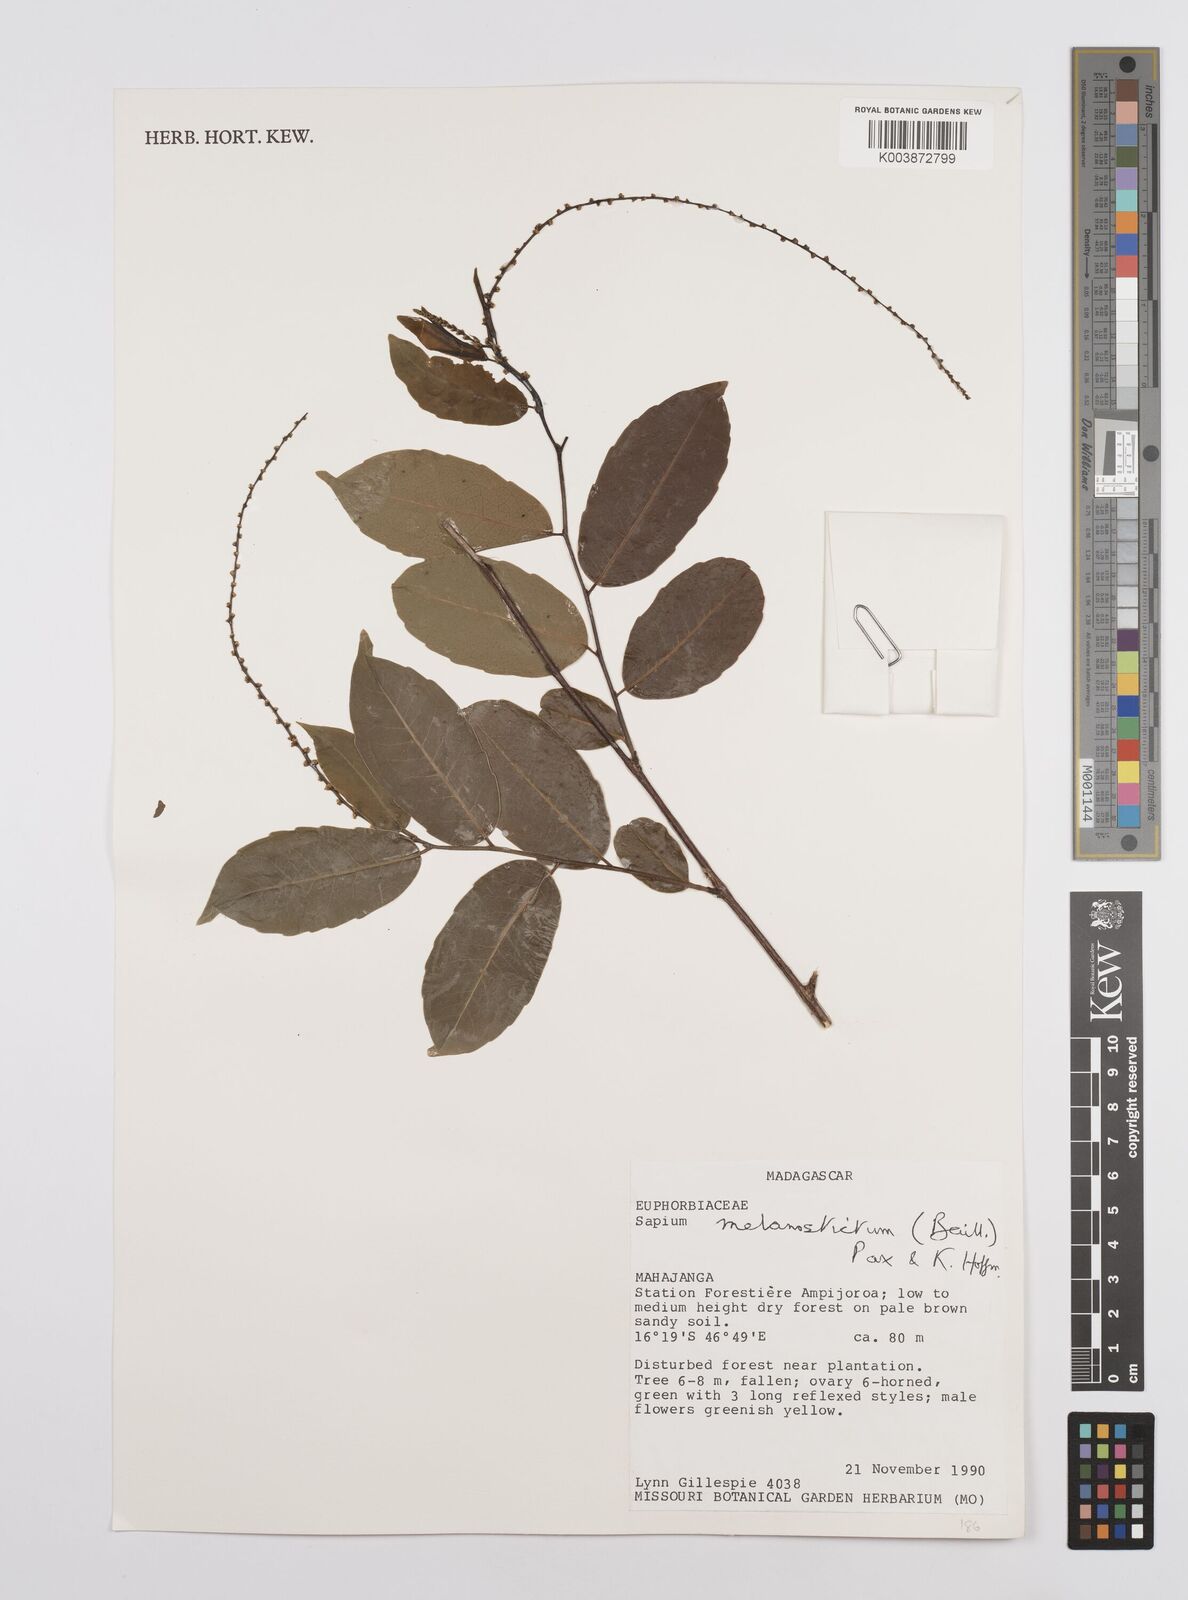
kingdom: Plantae
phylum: Tracheophyta
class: Magnoliopsida
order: Malpighiales
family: Euphorbiaceae
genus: Sclerocroton
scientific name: Sclerocroton melanostictus
